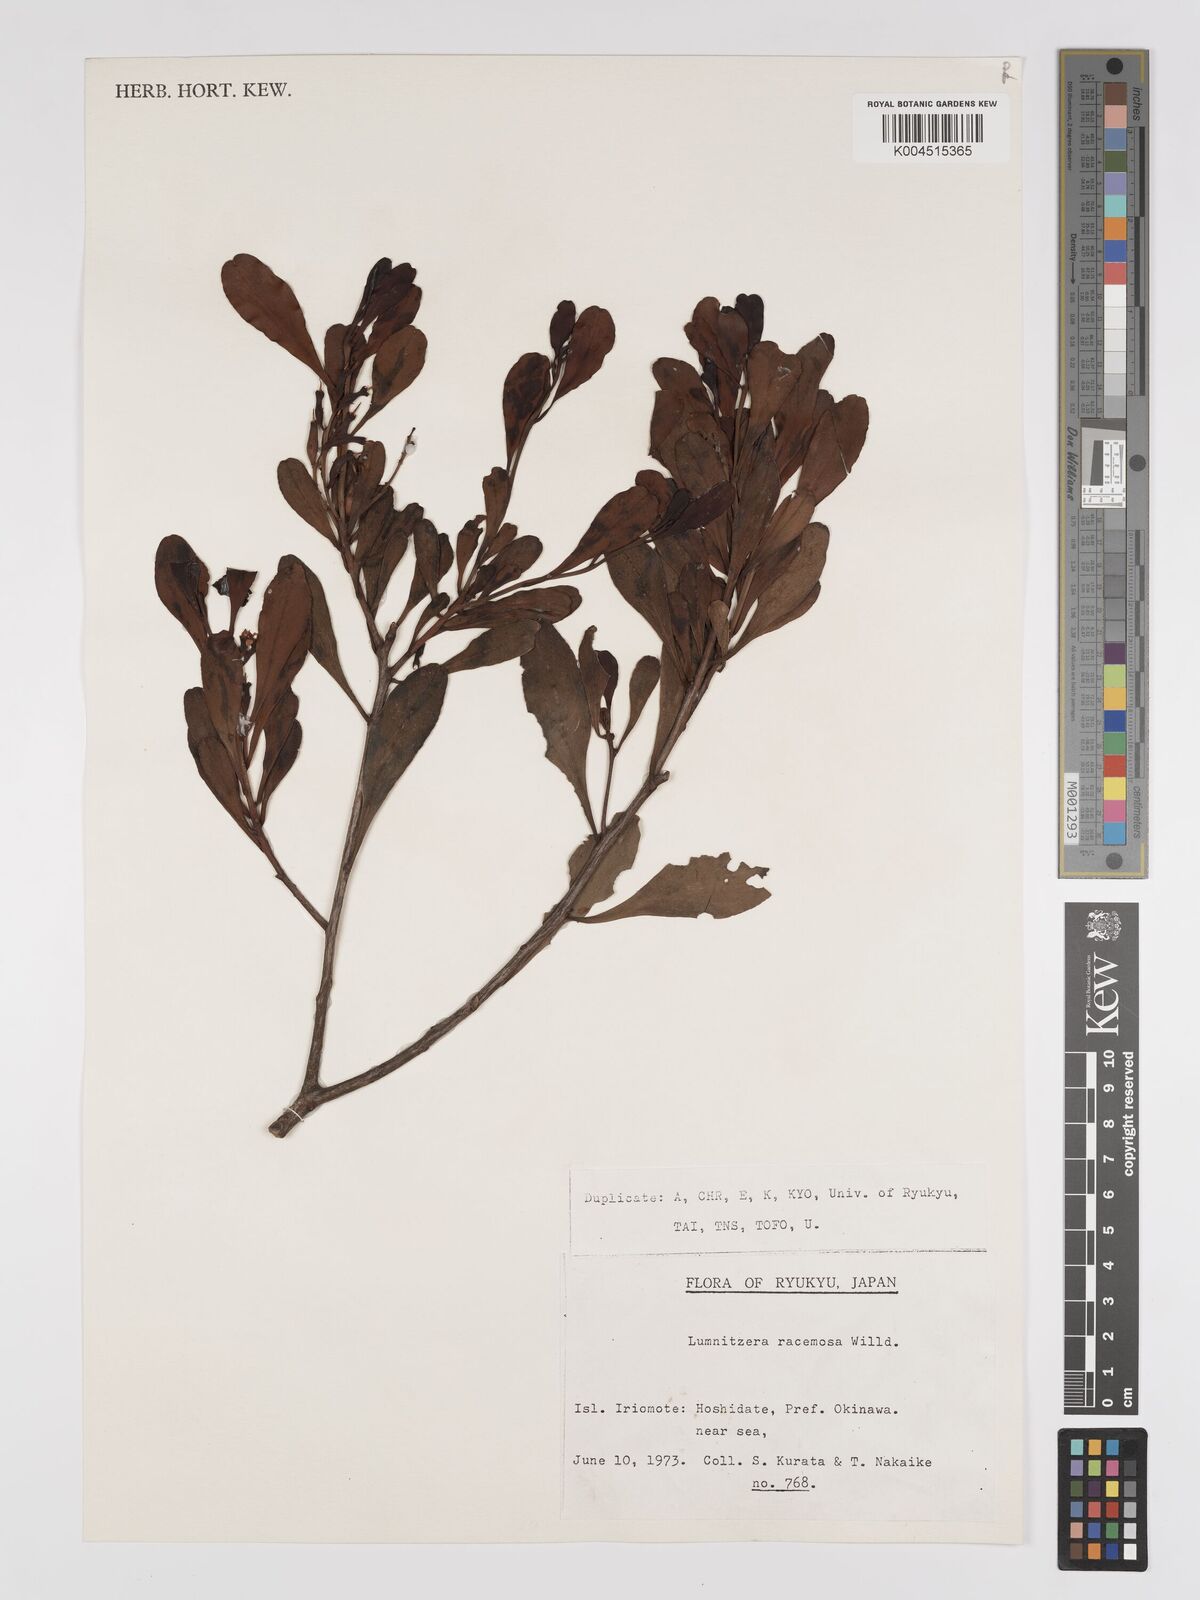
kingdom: Plantae
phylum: Tracheophyta
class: Magnoliopsida
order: Myrtales
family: Combretaceae
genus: Lumnitzera
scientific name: Lumnitzera racemosa
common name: White-flowered black mangrove
